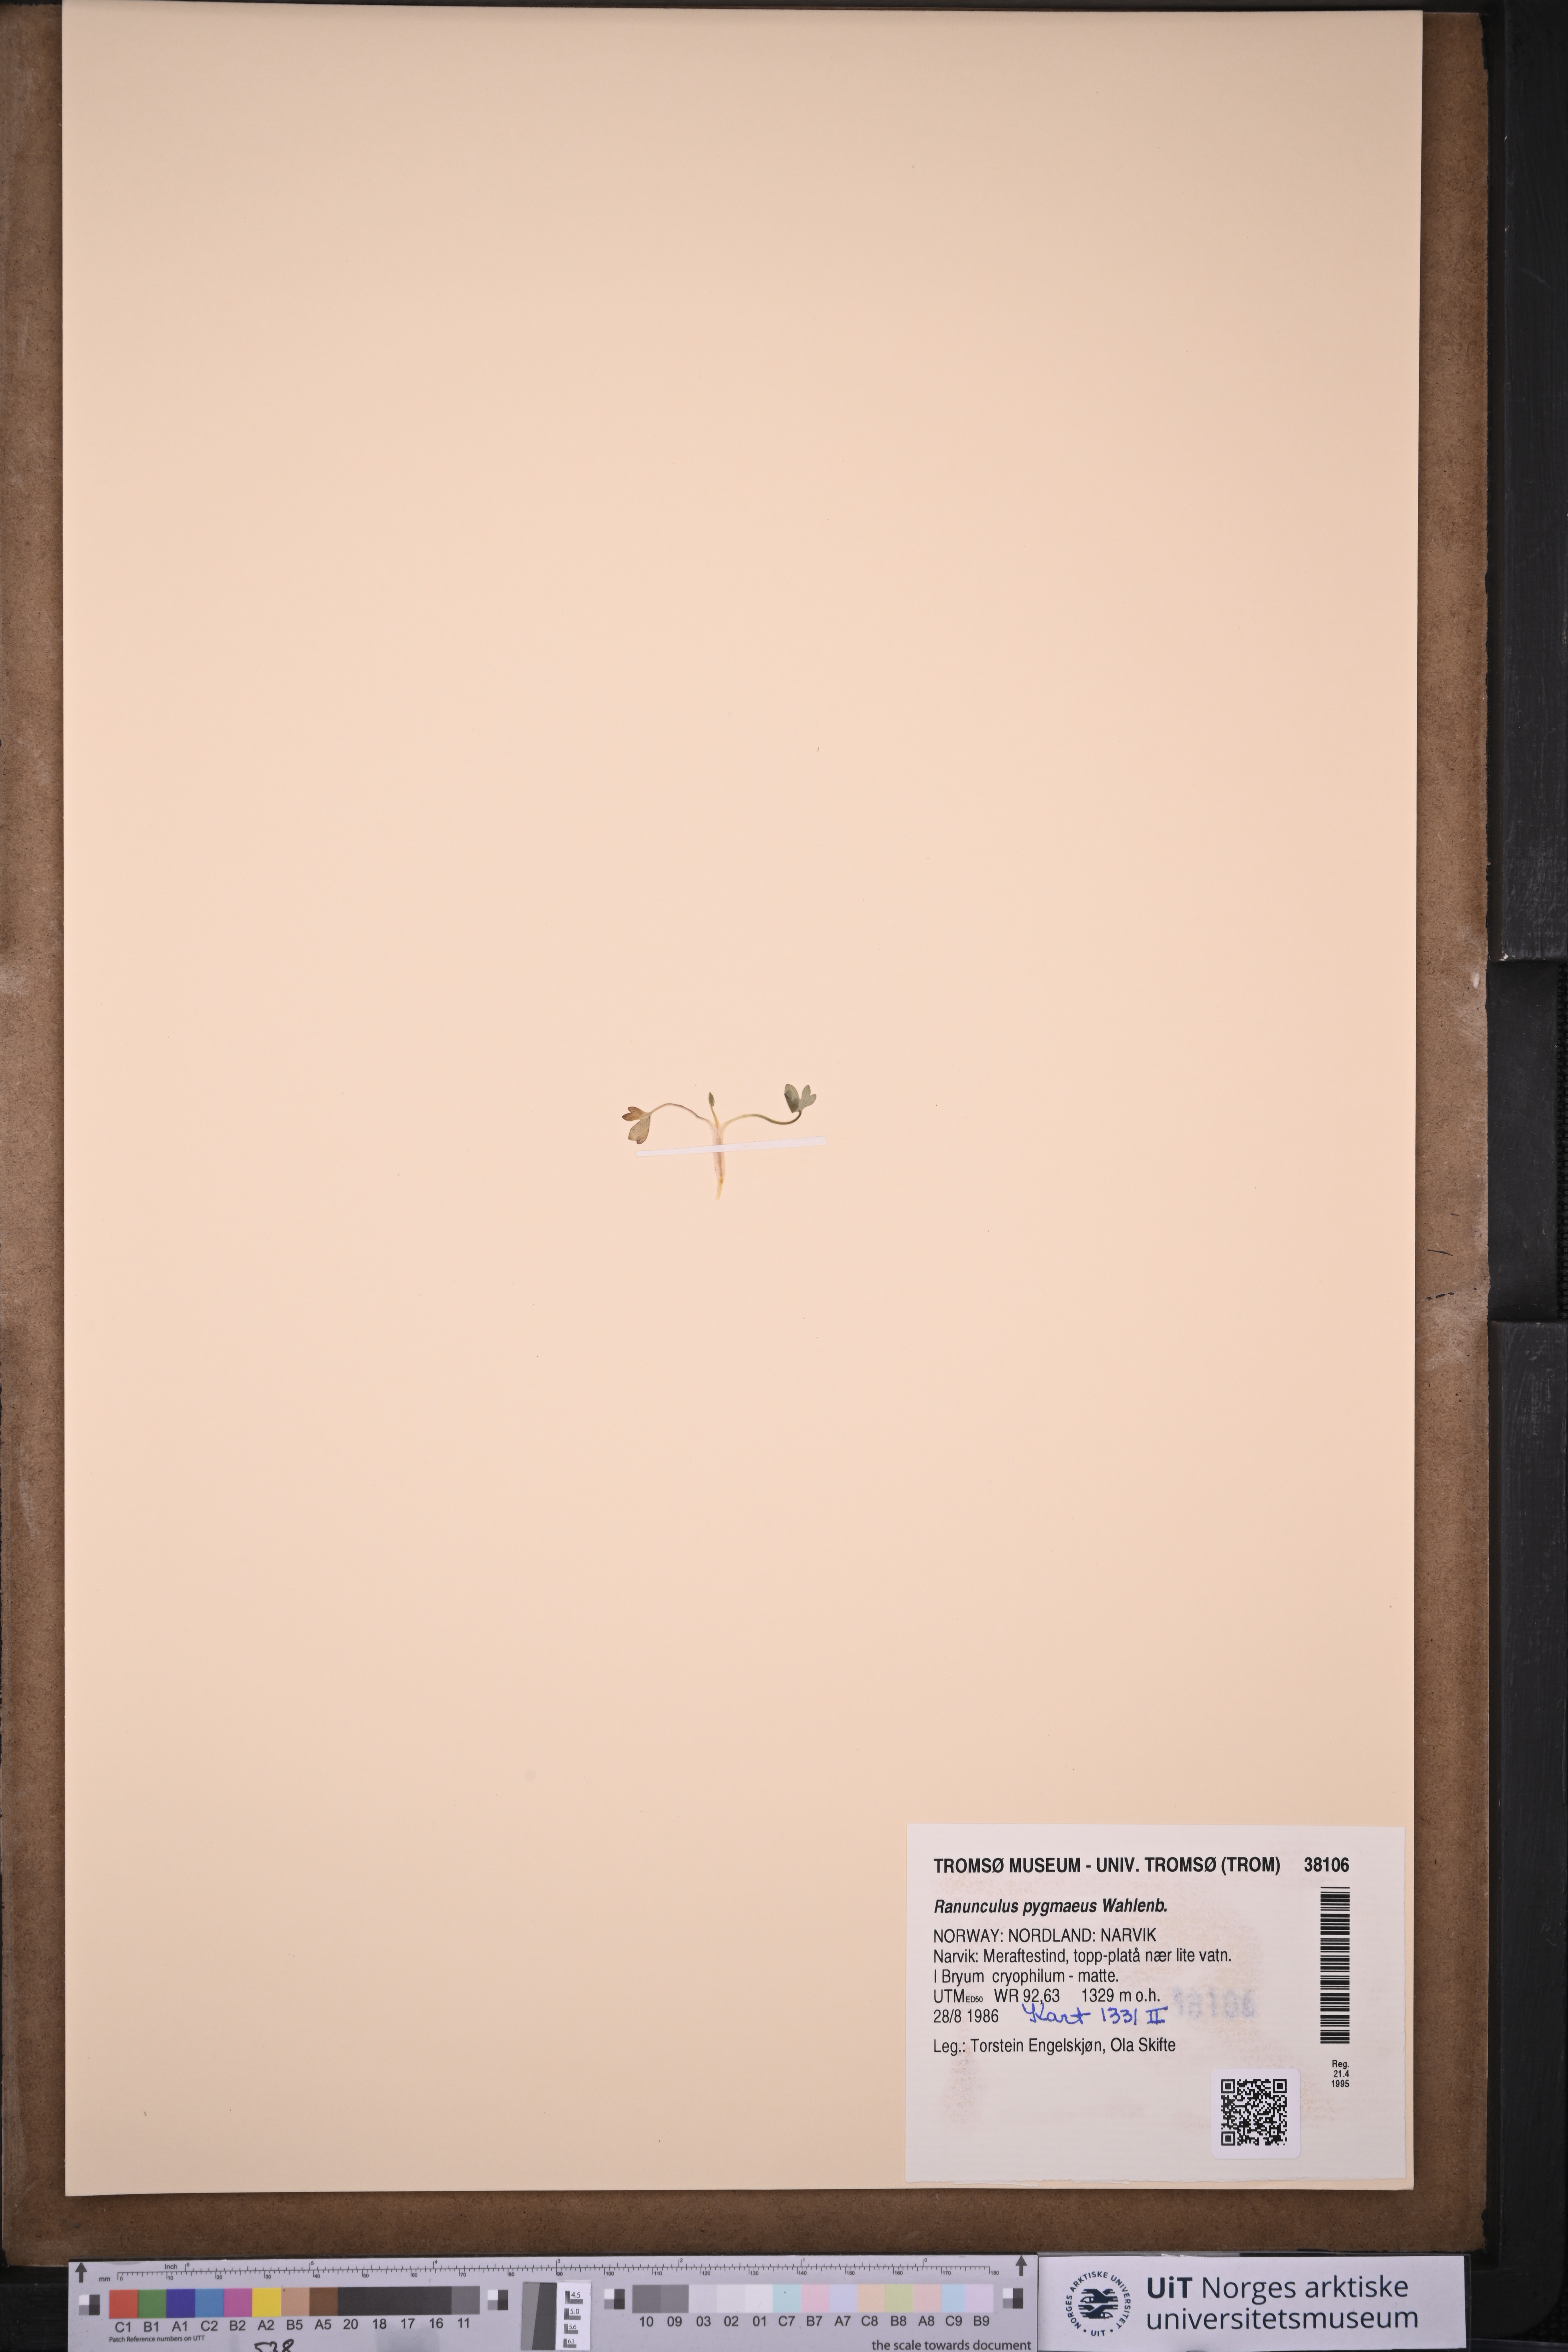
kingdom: Plantae
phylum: Tracheophyta
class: Magnoliopsida
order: Ranunculales
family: Ranunculaceae
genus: Ranunculus
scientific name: Ranunculus pygmaeus
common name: Dwarf buttercup
